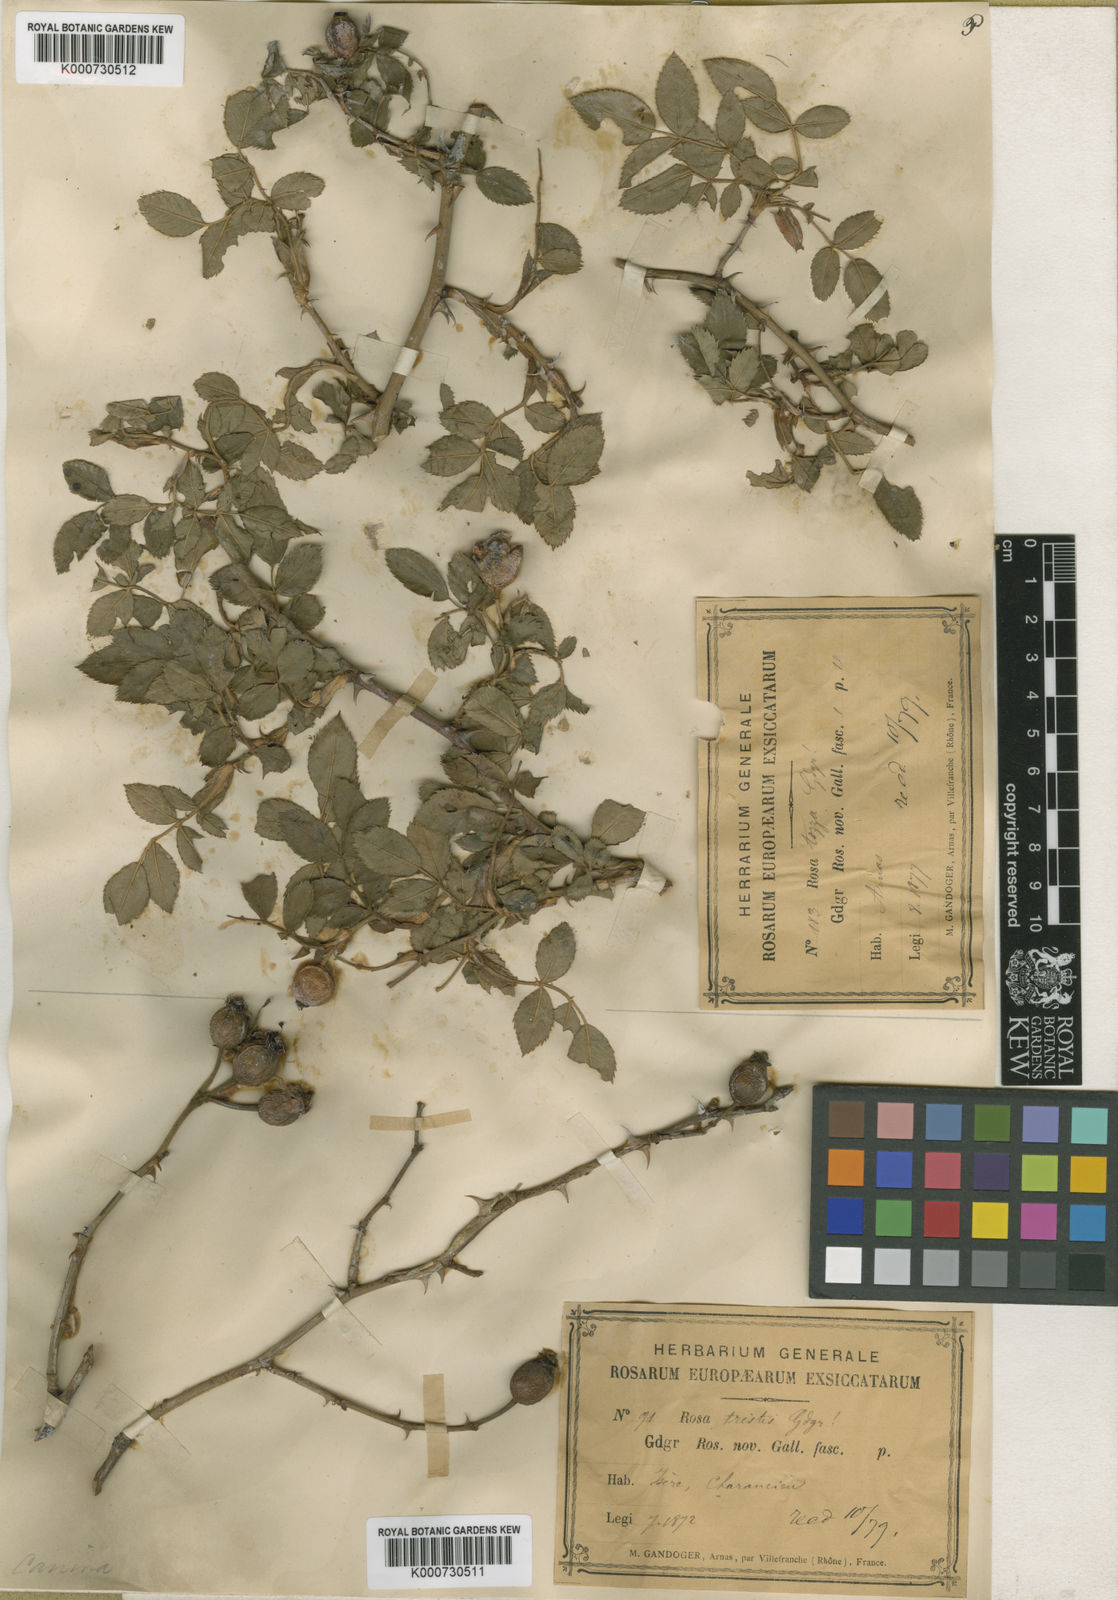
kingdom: Plantae
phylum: Tracheophyta
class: Magnoliopsida
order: Rosales
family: Rosaceae
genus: Rosa
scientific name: Rosa canina
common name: Dog rose
